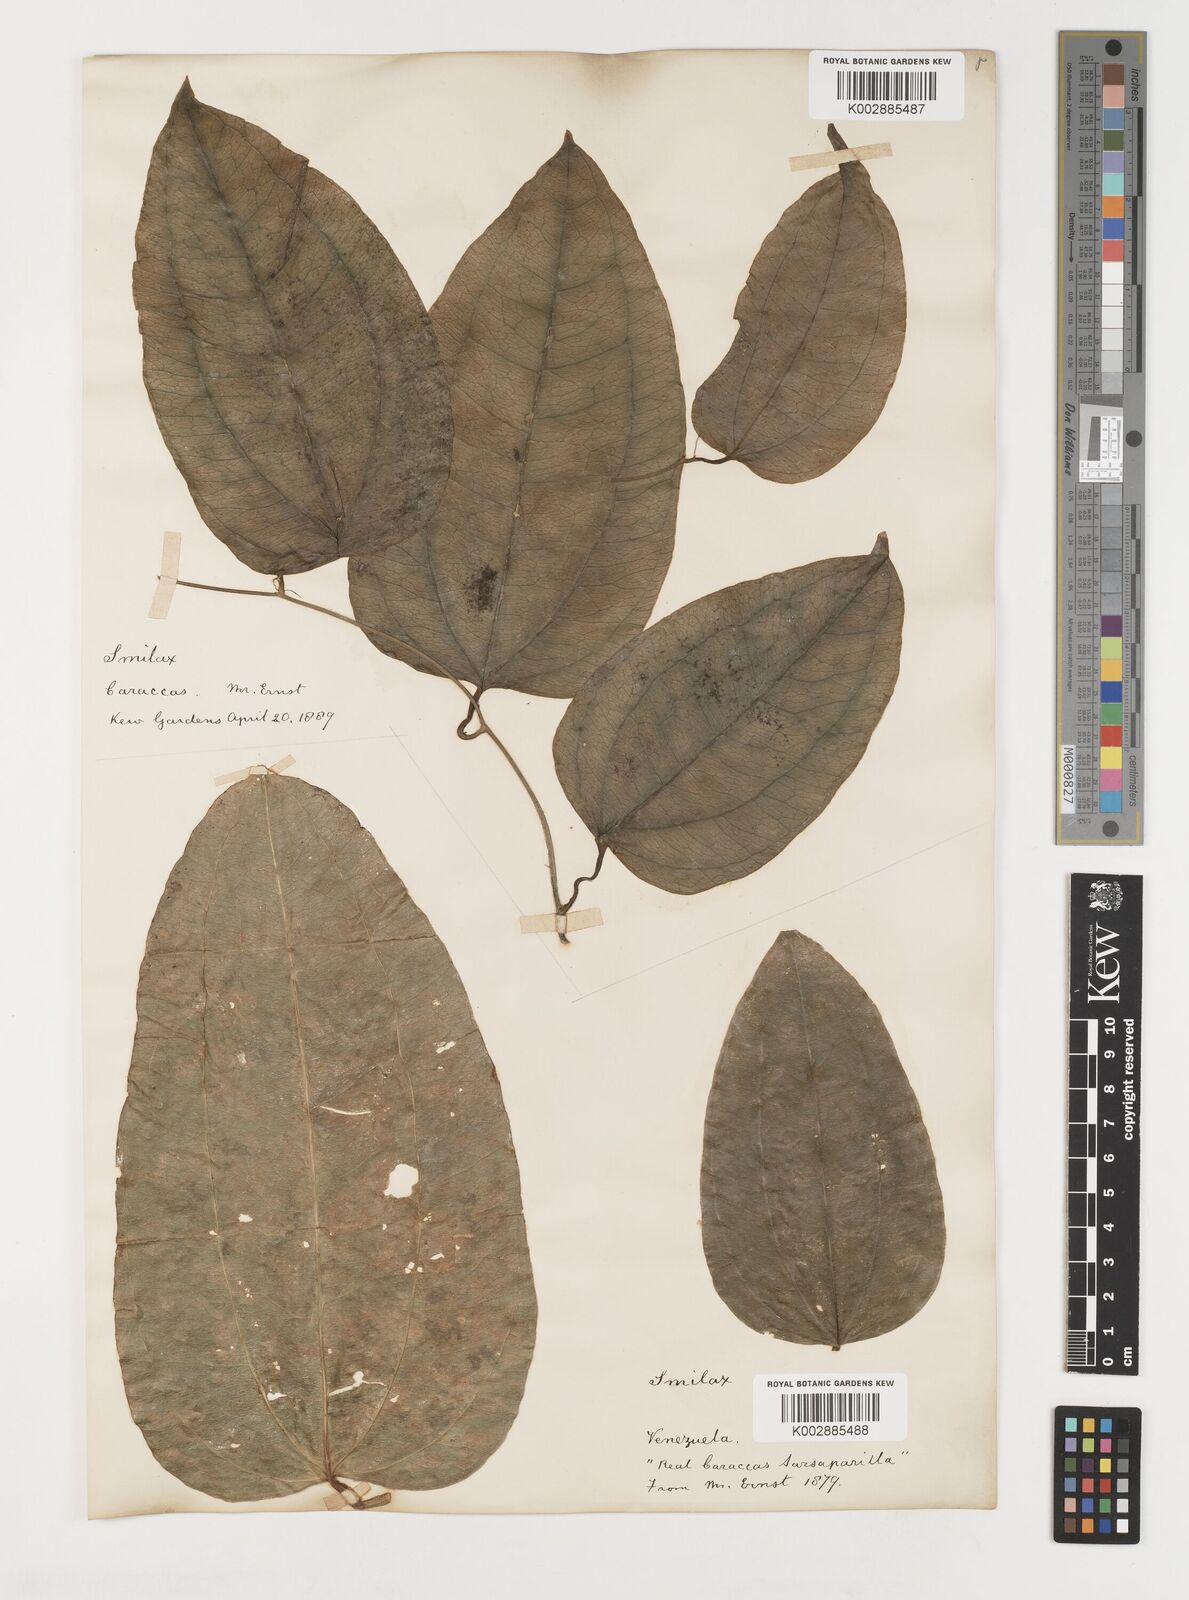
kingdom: Plantae
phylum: Tracheophyta
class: Liliopsida
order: Liliales
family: Smilacaceae
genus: Smilax
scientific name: Smilax
